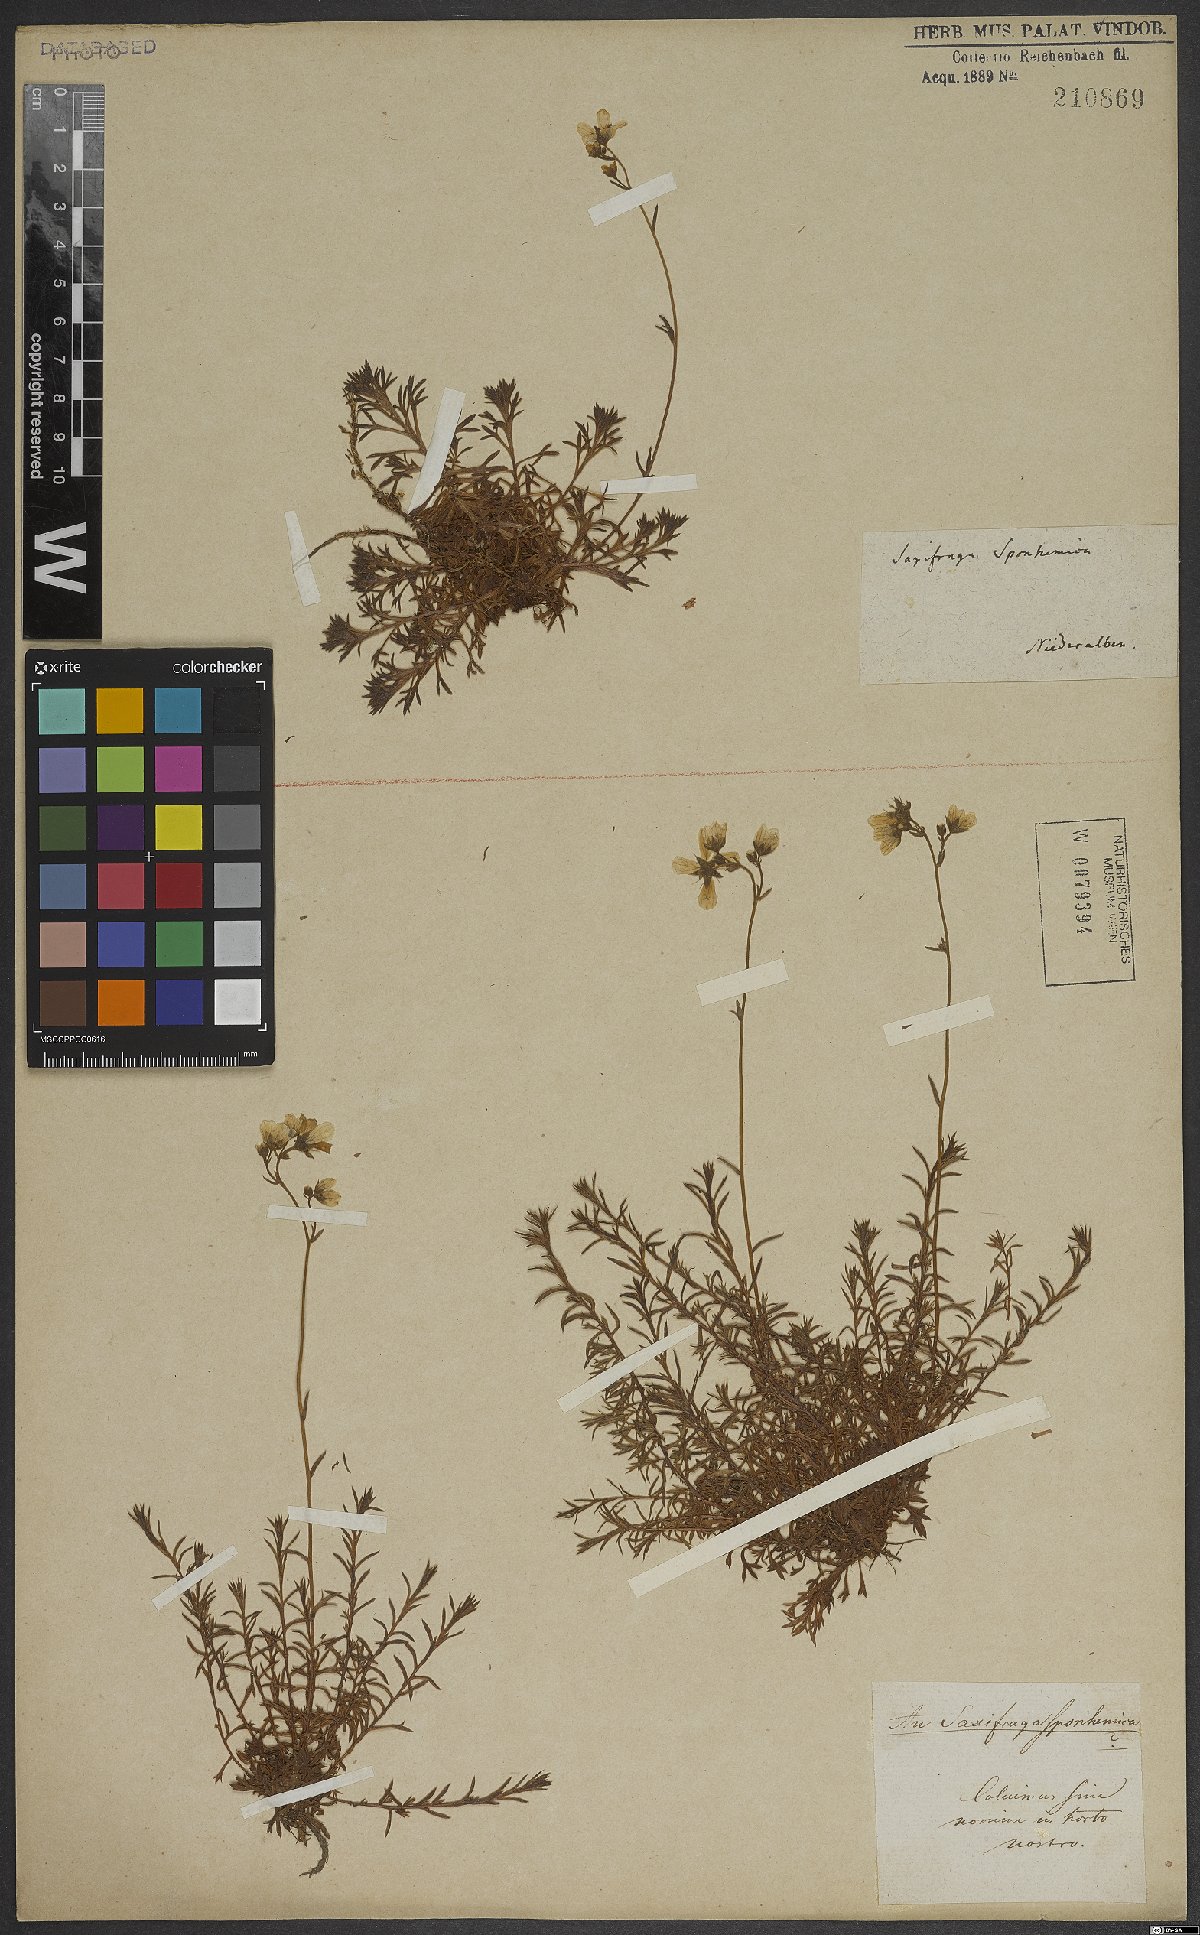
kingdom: Plantae
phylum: Tracheophyta
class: Magnoliopsida
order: Saxifragales
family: Saxifragaceae
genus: Saxifraga
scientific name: Saxifraga rosacea
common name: Irish saxifrage
